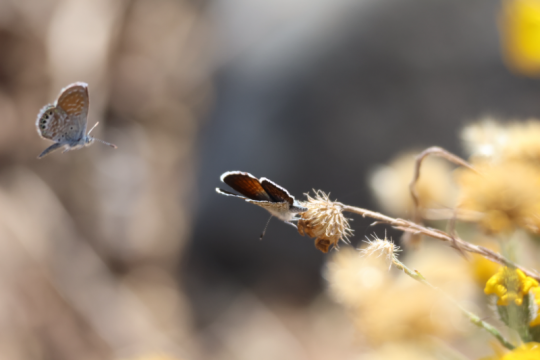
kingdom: Animalia
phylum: Arthropoda
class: Insecta
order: Lepidoptera
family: Lycaenidae
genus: Brephidium
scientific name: Brephidium exilis
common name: Western Pygmy-Blue
